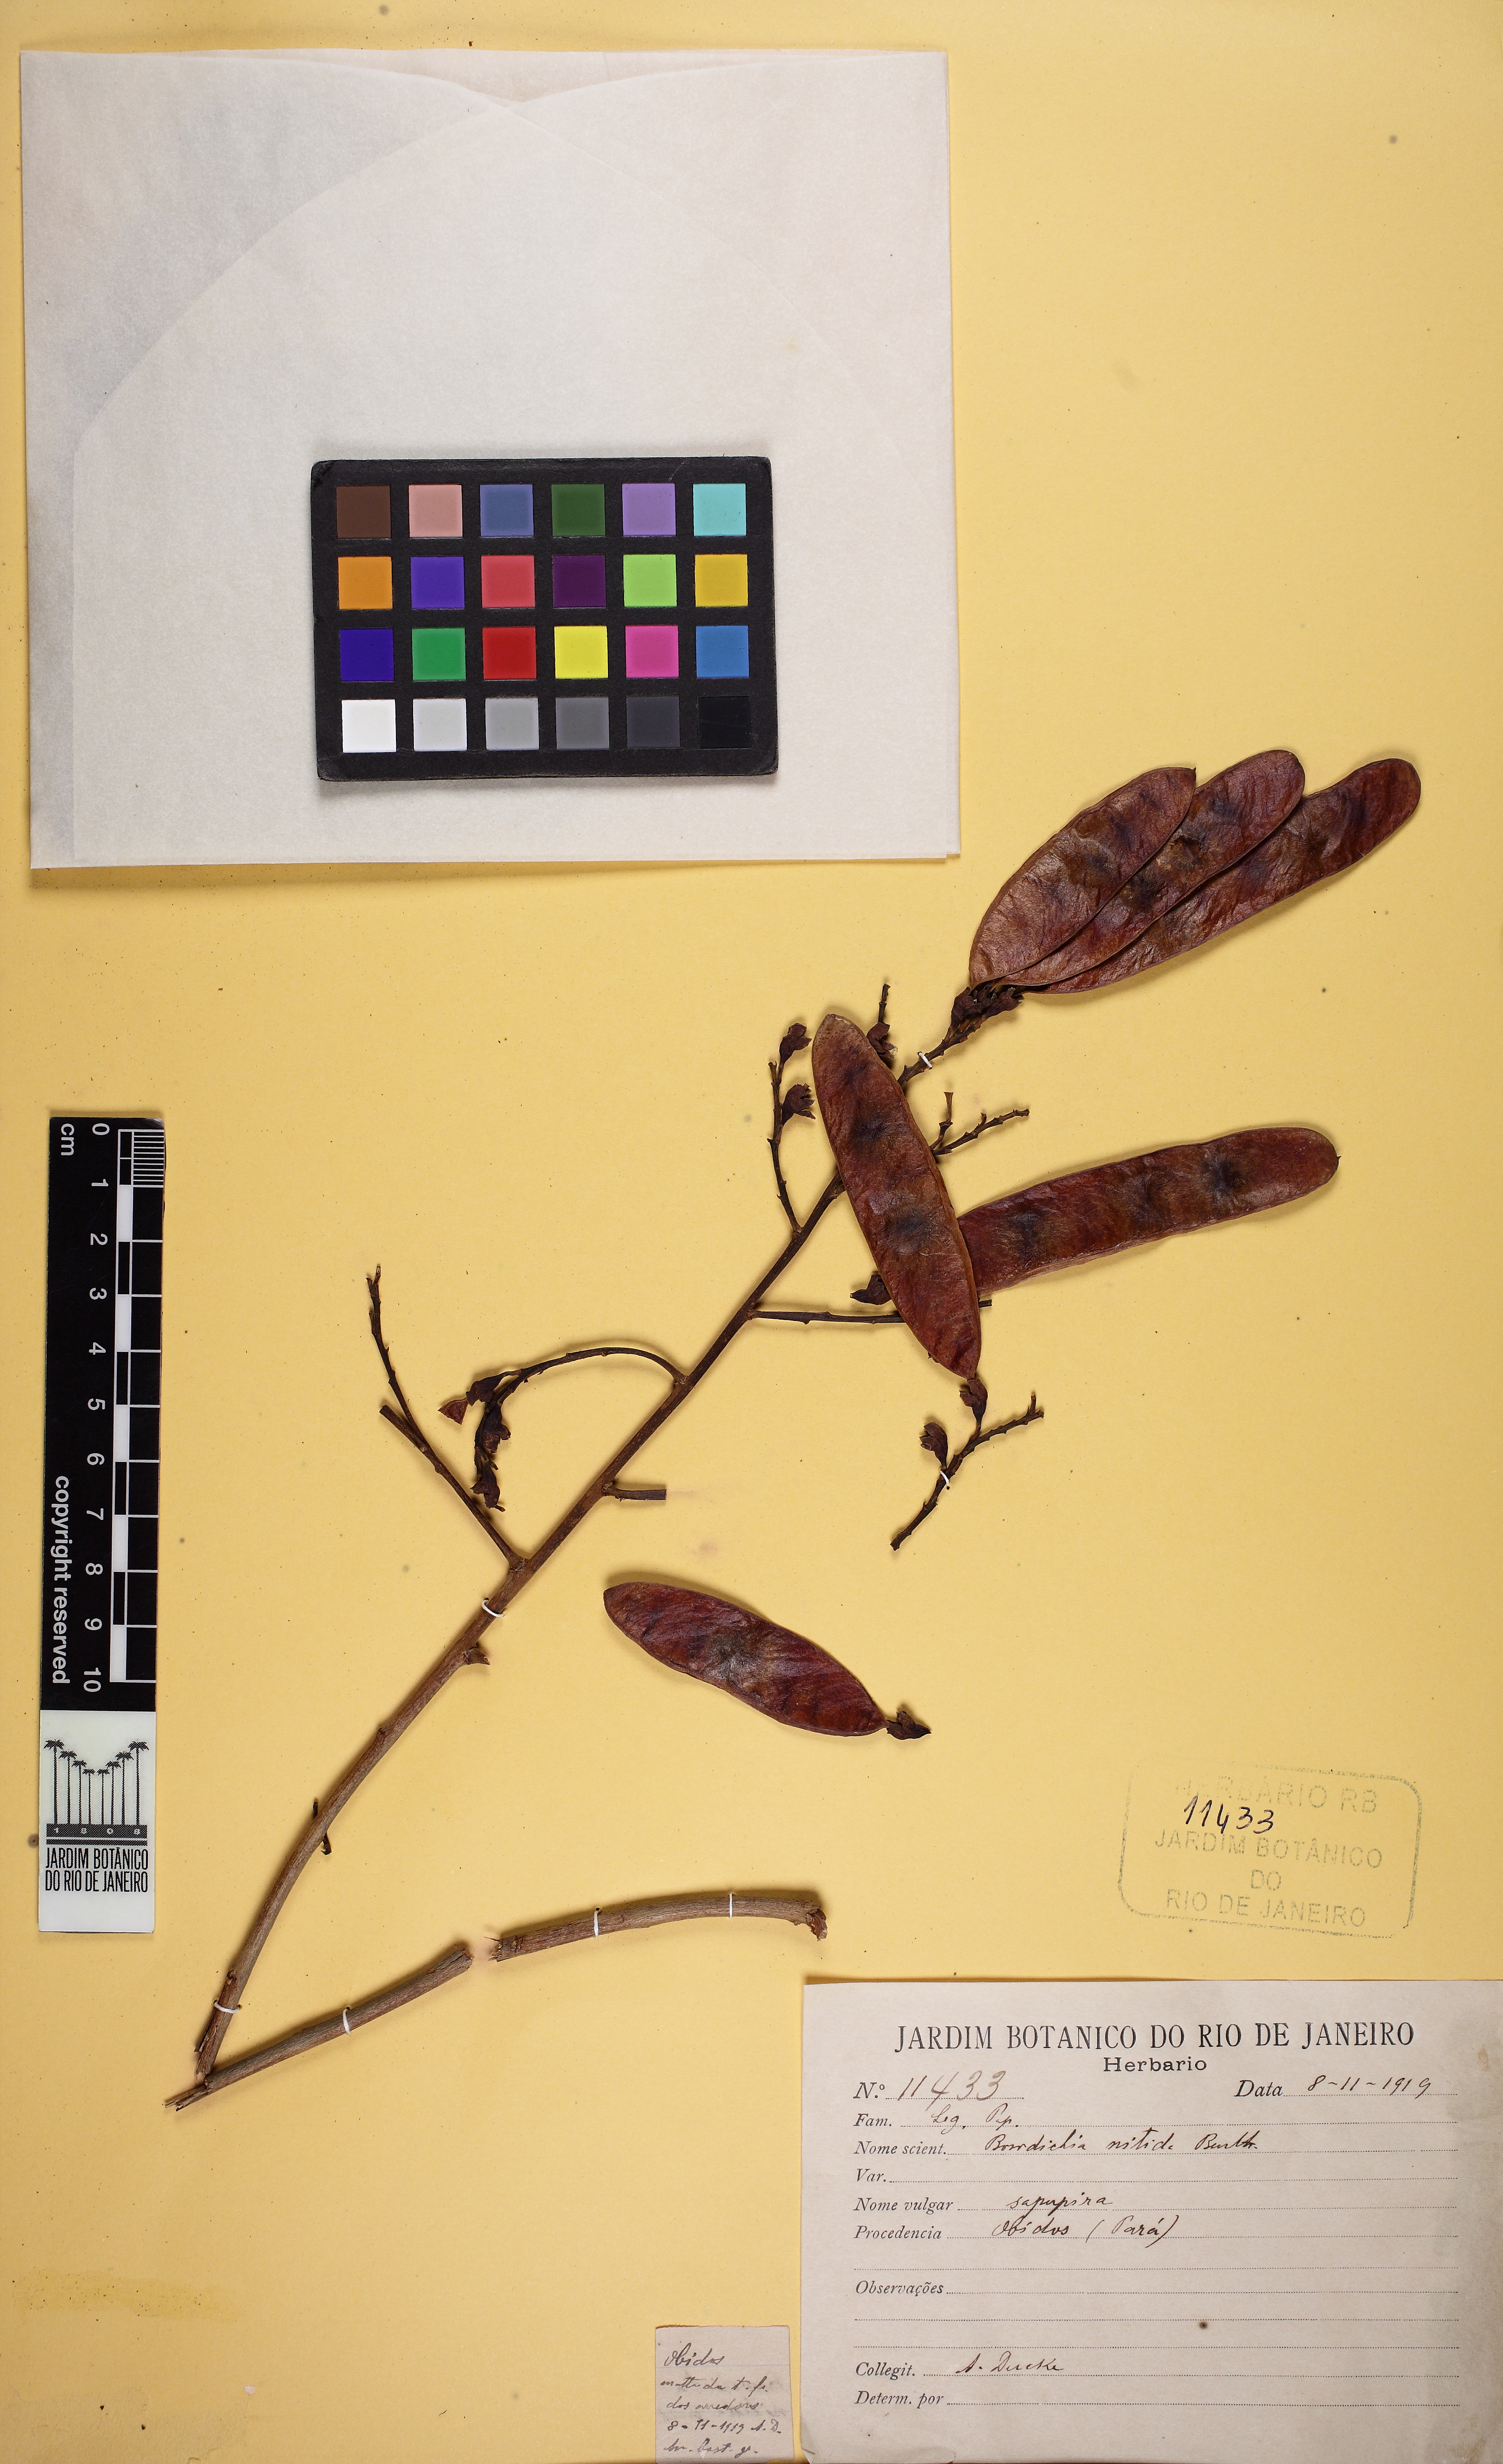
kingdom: Plantae
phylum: Tracheophyta
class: Magnoliopsida
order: Fabales
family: Fabaceae
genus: Bowdichia
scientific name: Bowdichia nitida
